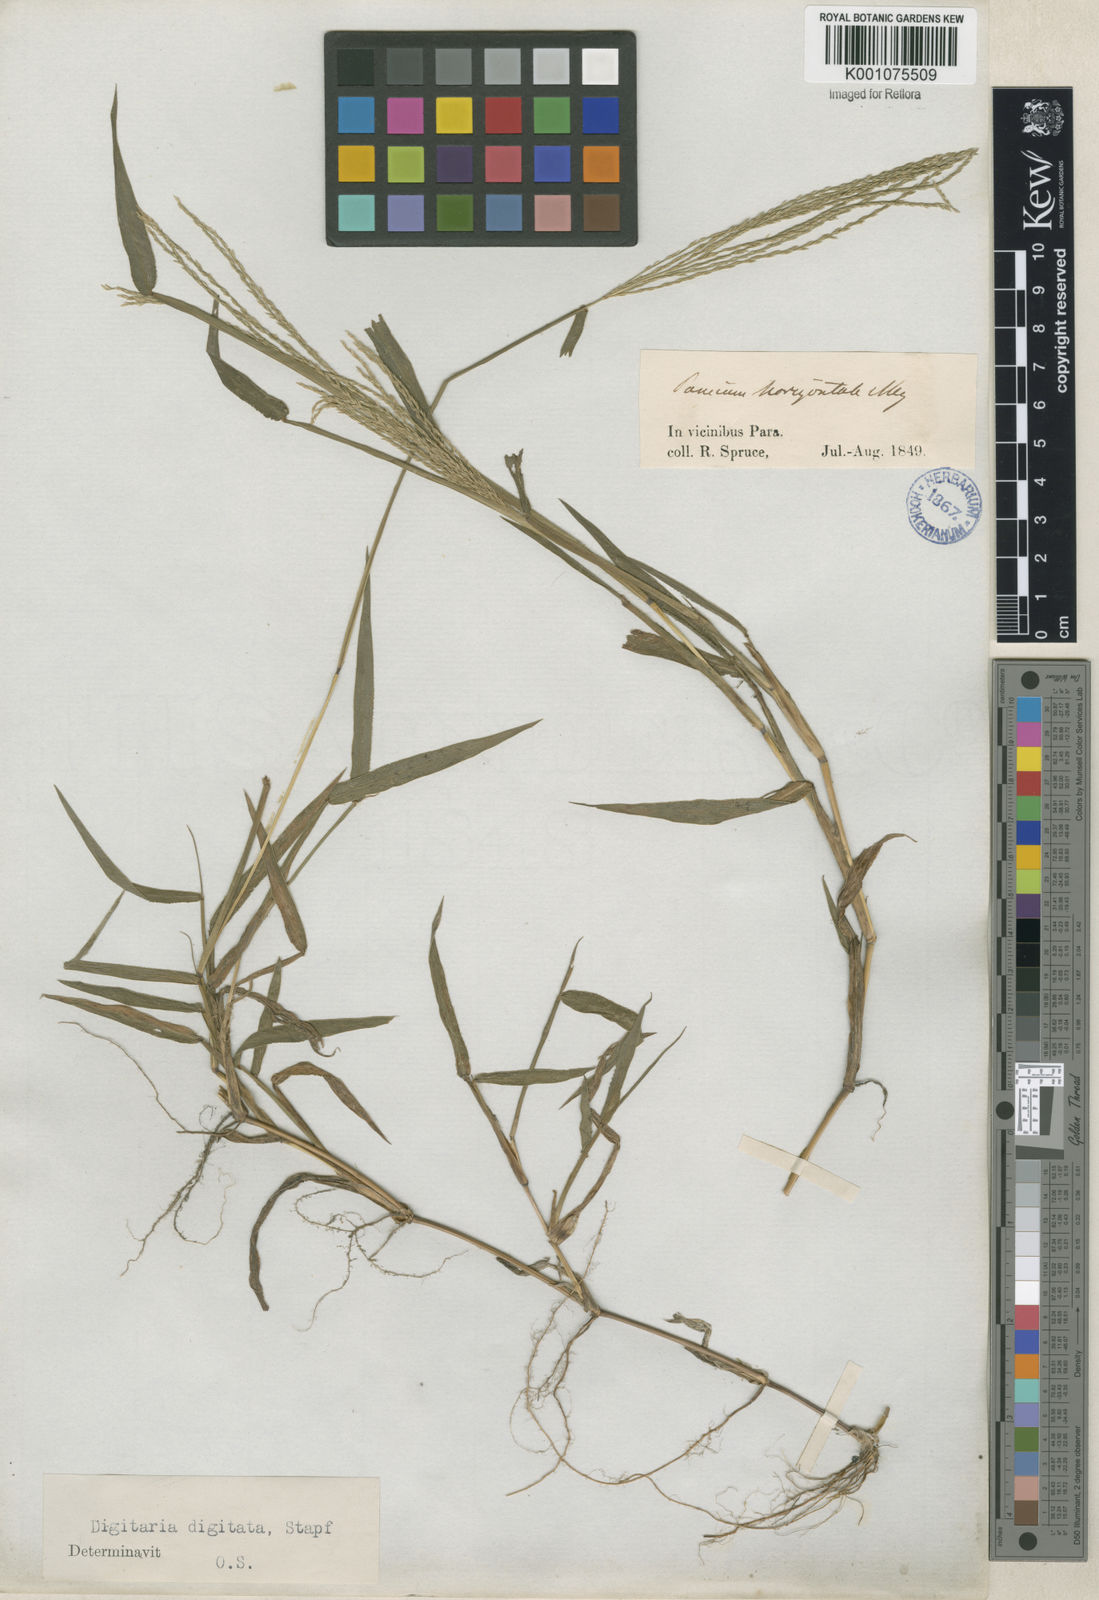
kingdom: Plantae
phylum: Tracheophyta
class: Liliopsida
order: Poales
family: Poaceae
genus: Digitaria
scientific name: Digitaria horizontalis
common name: Jamaican crabgrass
